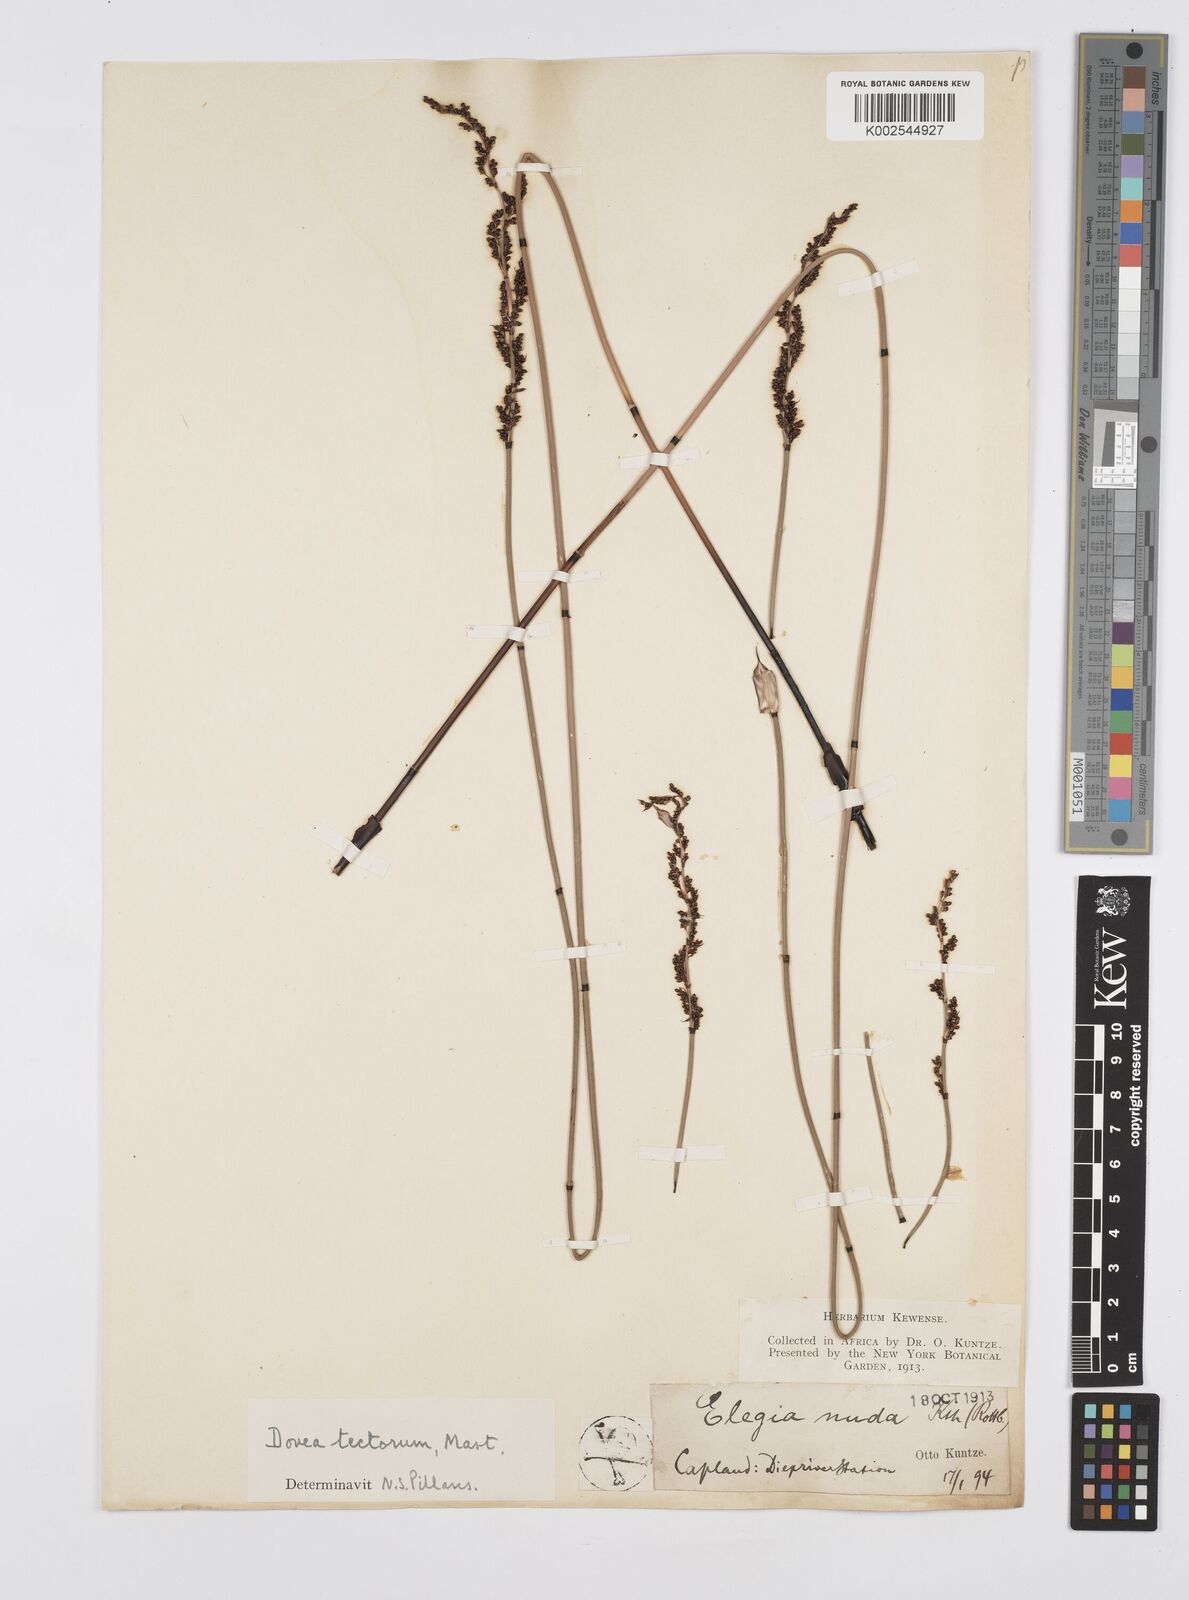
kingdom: Plantae
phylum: Tracheophyta
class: Liliopsida
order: Poales
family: Restionaceae
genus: Elegia
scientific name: Elegia tectorum
